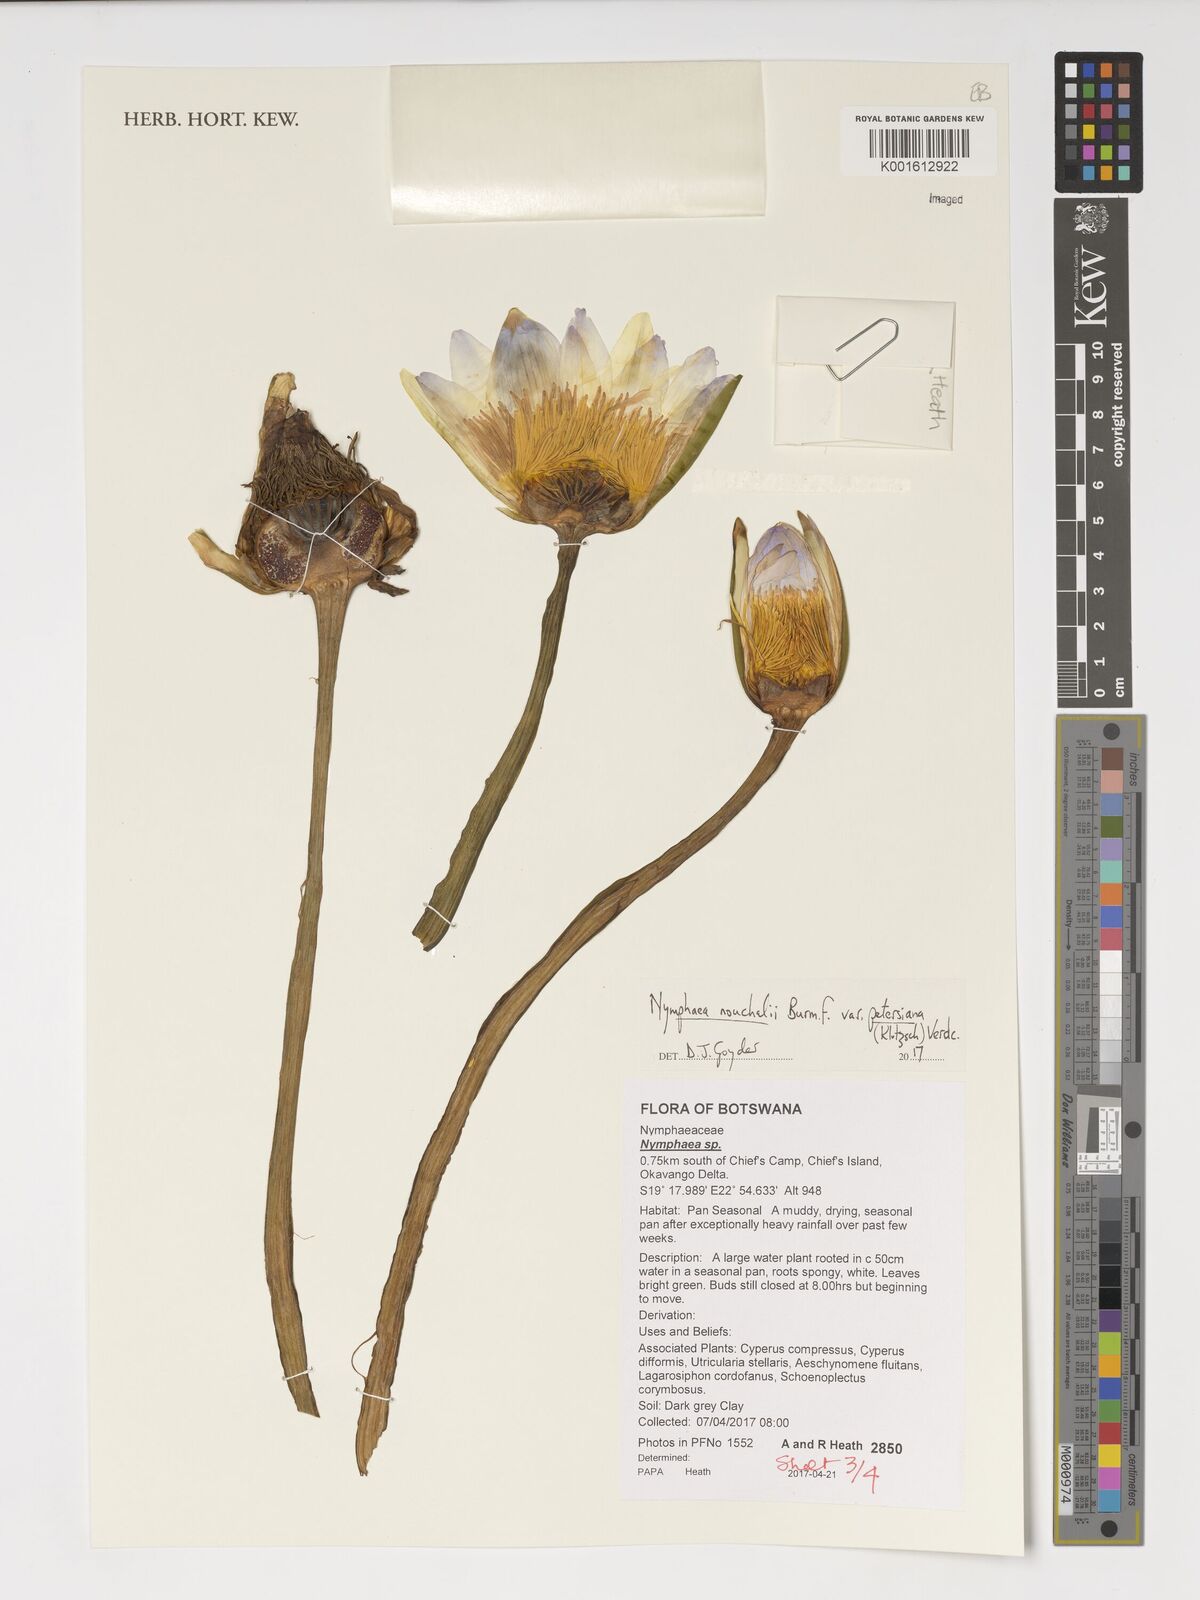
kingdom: Plantae
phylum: Tracheophyta
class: Magnoliopsida
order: Nymphaeales
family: Nymphaeaceae
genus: Nymphaea
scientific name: Nymphaea nouchali
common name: Blue lotus
